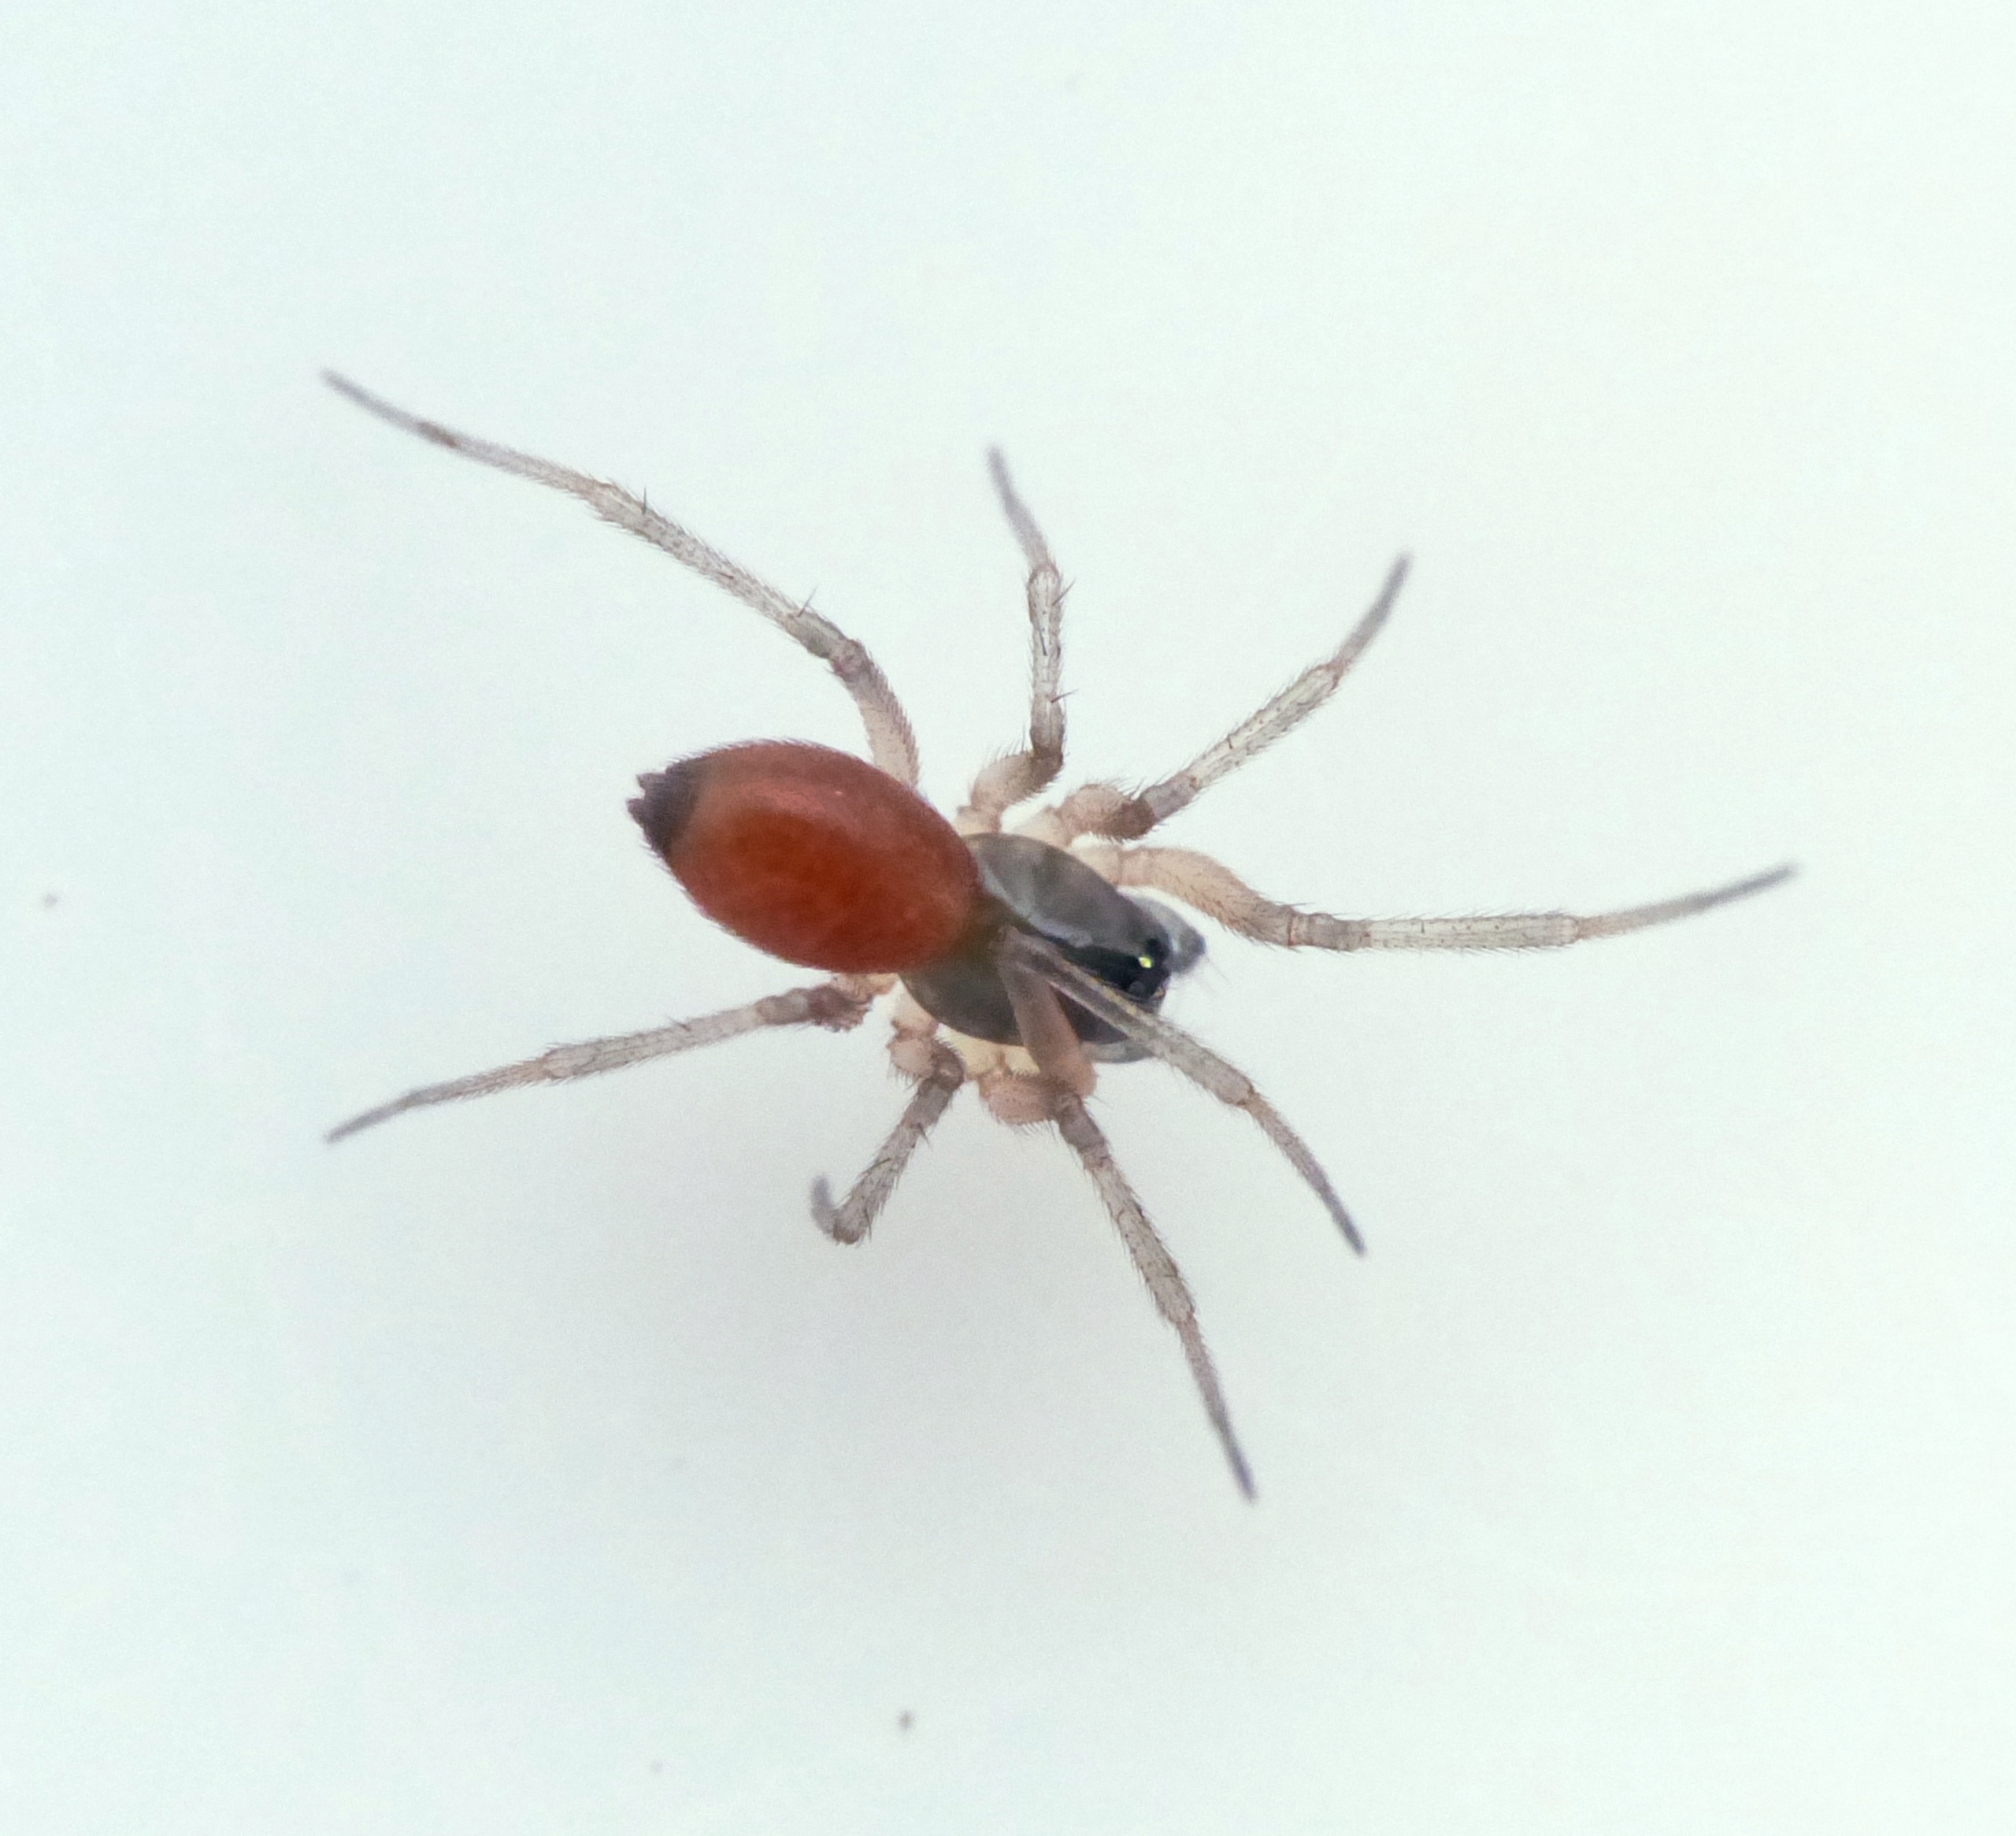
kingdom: Animalia
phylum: Arthropoda
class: Arachnida
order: Araneae
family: Linyphiidae
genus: Ostearius
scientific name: Ostearius melanopygius
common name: Sorthaleedderkop
